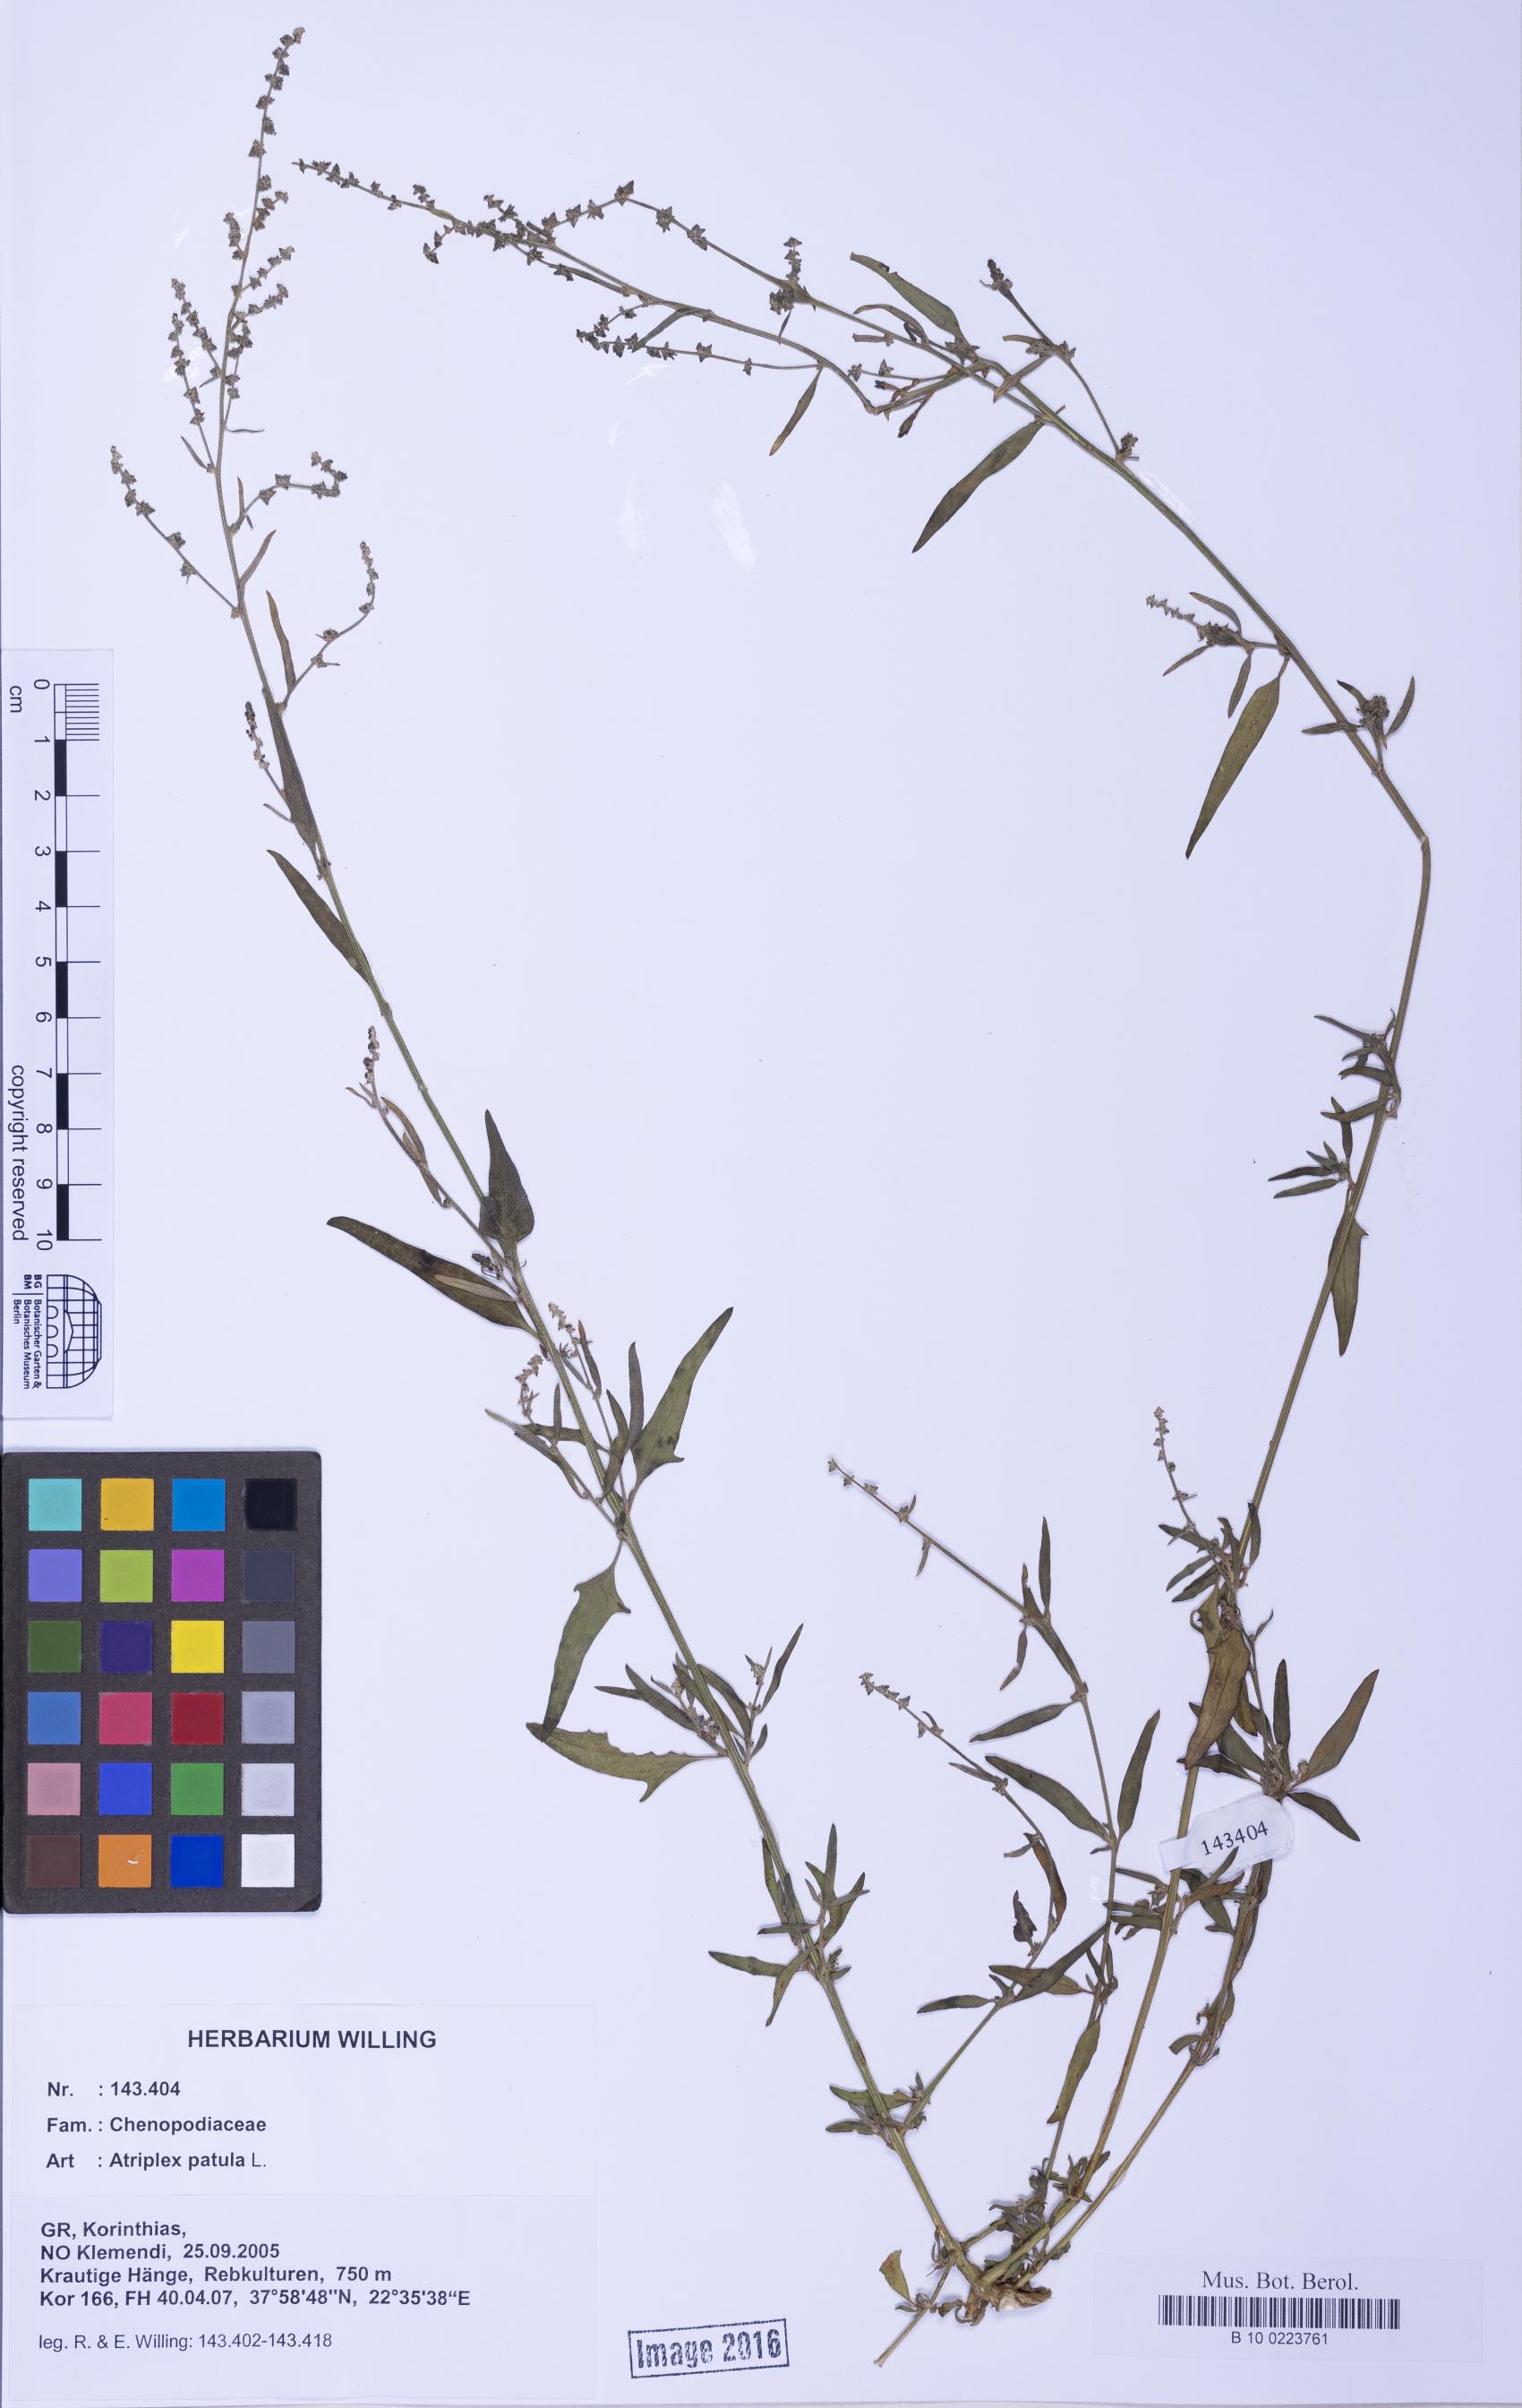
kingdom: Plantae
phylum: Tracheophyta
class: Magnoliopsida
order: Caryophyllales
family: Amaranthaceae
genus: Atriplex
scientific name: Atriplex patula
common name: Common orache
